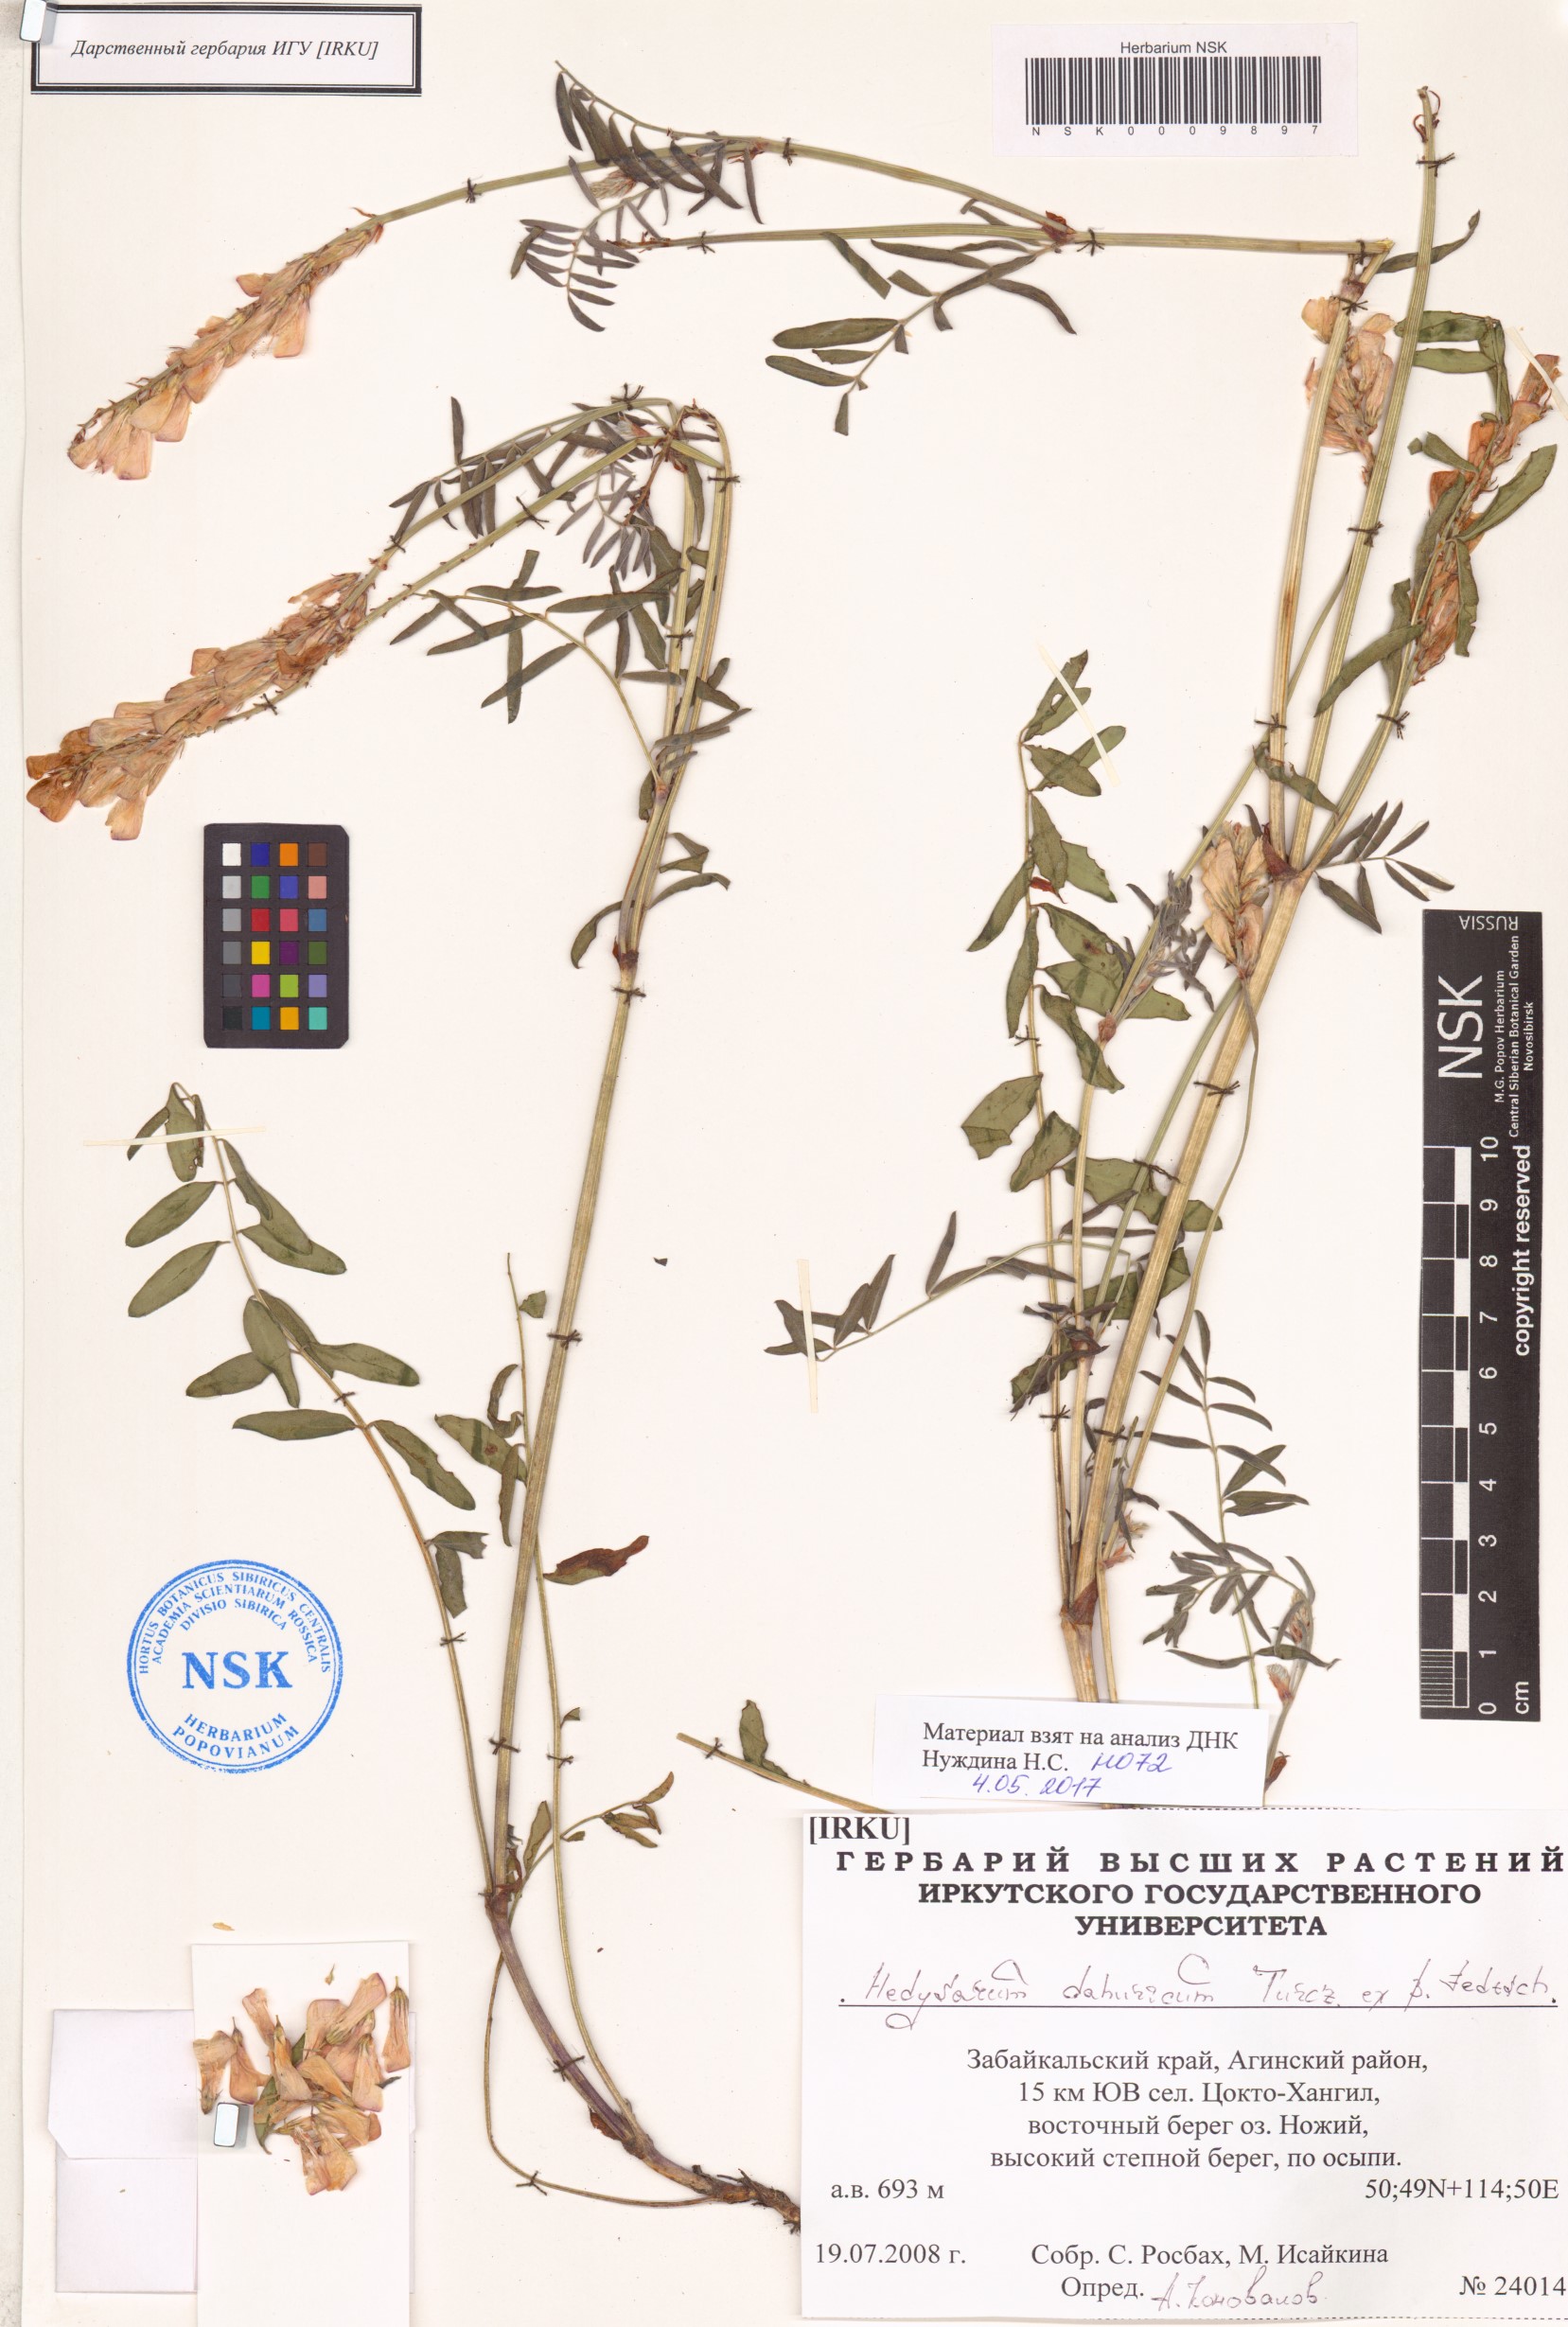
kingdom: Plantae
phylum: Tracheophyta
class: Magnoliopsida
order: Fabales
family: Fabaceae
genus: Hedysarum
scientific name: Hedysarum dahuricum
